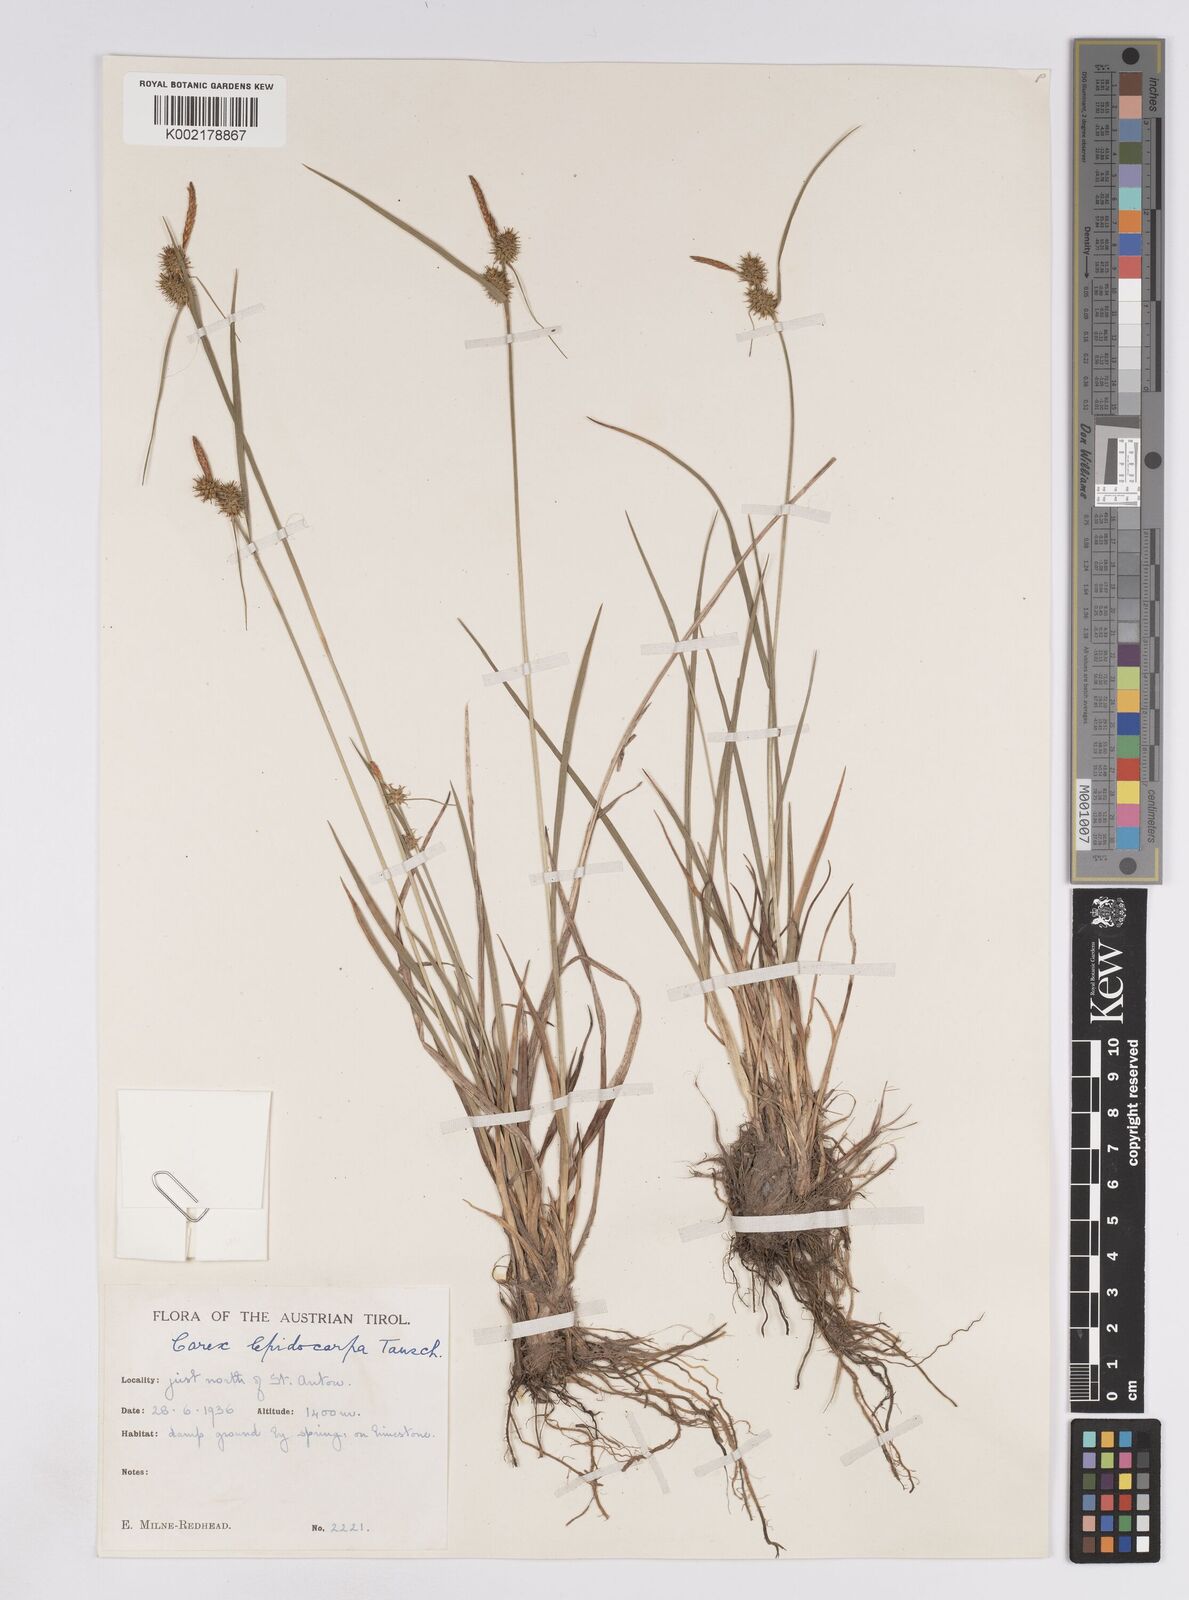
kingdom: Plantae
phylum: Tracheophyta
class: Liliopsida
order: Poales
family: Cyperaceae
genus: Carex
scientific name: Carex lepidocarpa
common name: Long-stalked yellow-sedge
